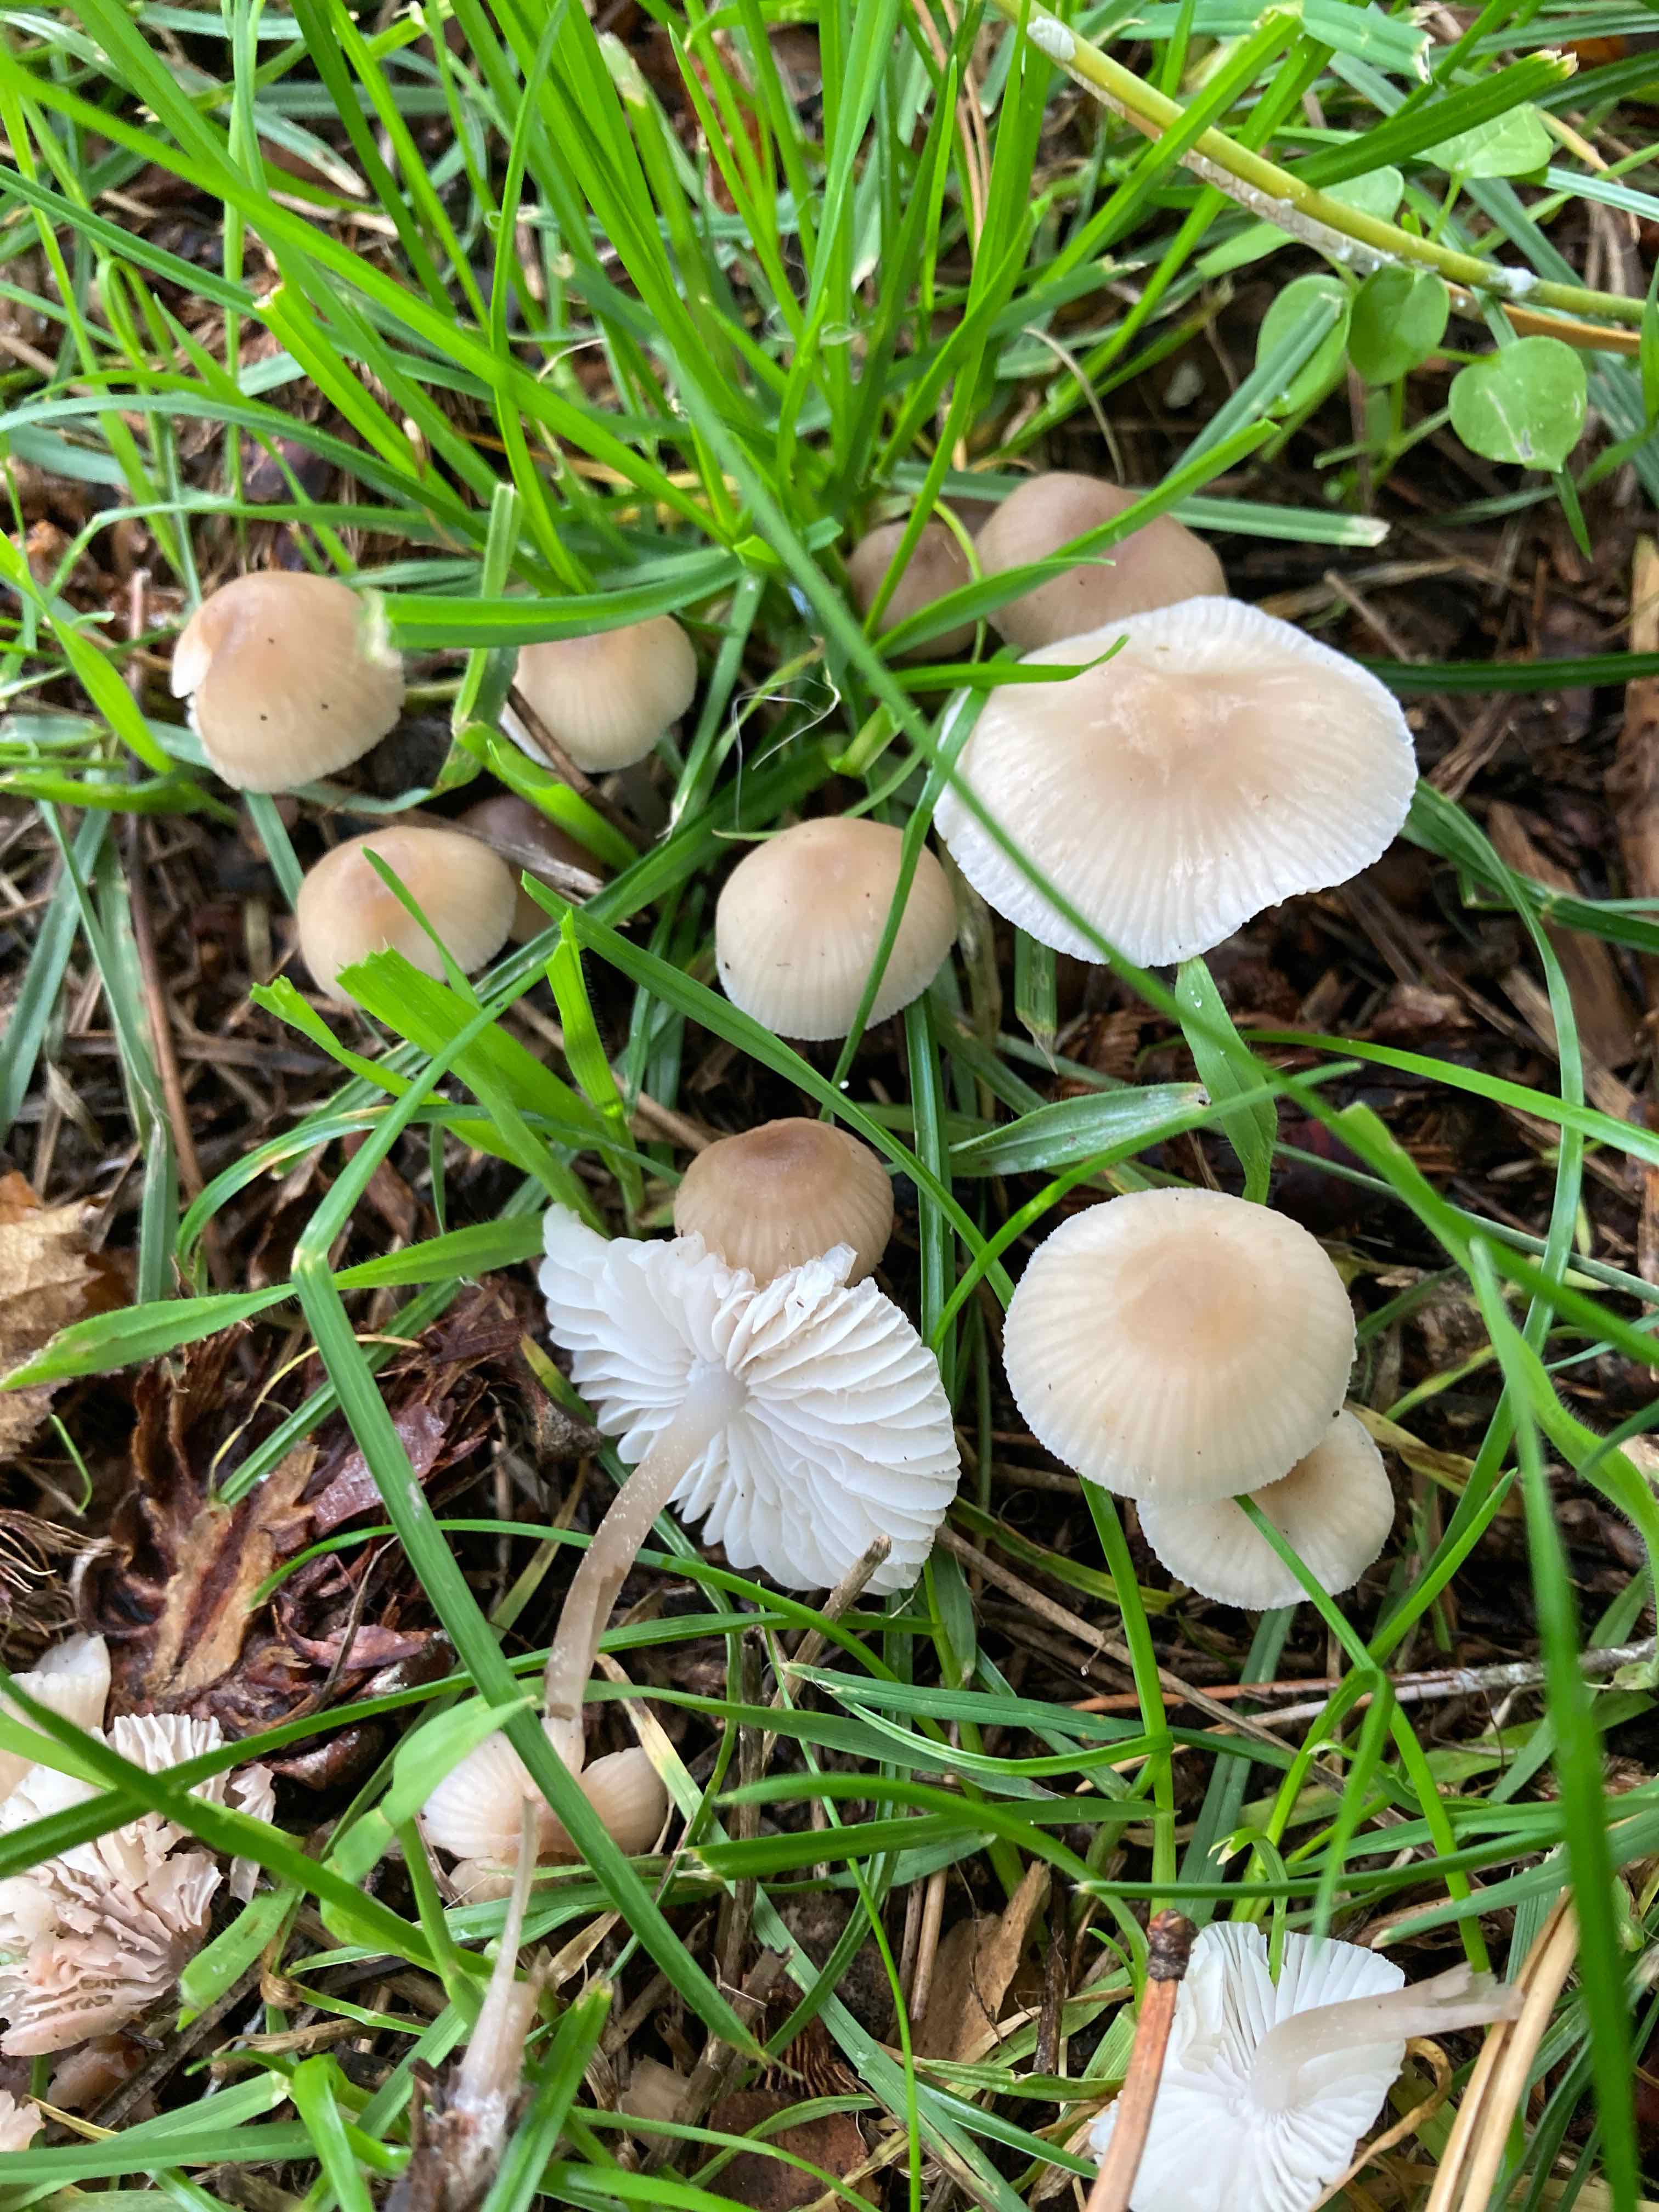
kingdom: Fungi
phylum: Basidiomycota
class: Agaricomycetes
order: Agaricales
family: Mycenaceae
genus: Mycena
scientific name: Mycena zephirus
